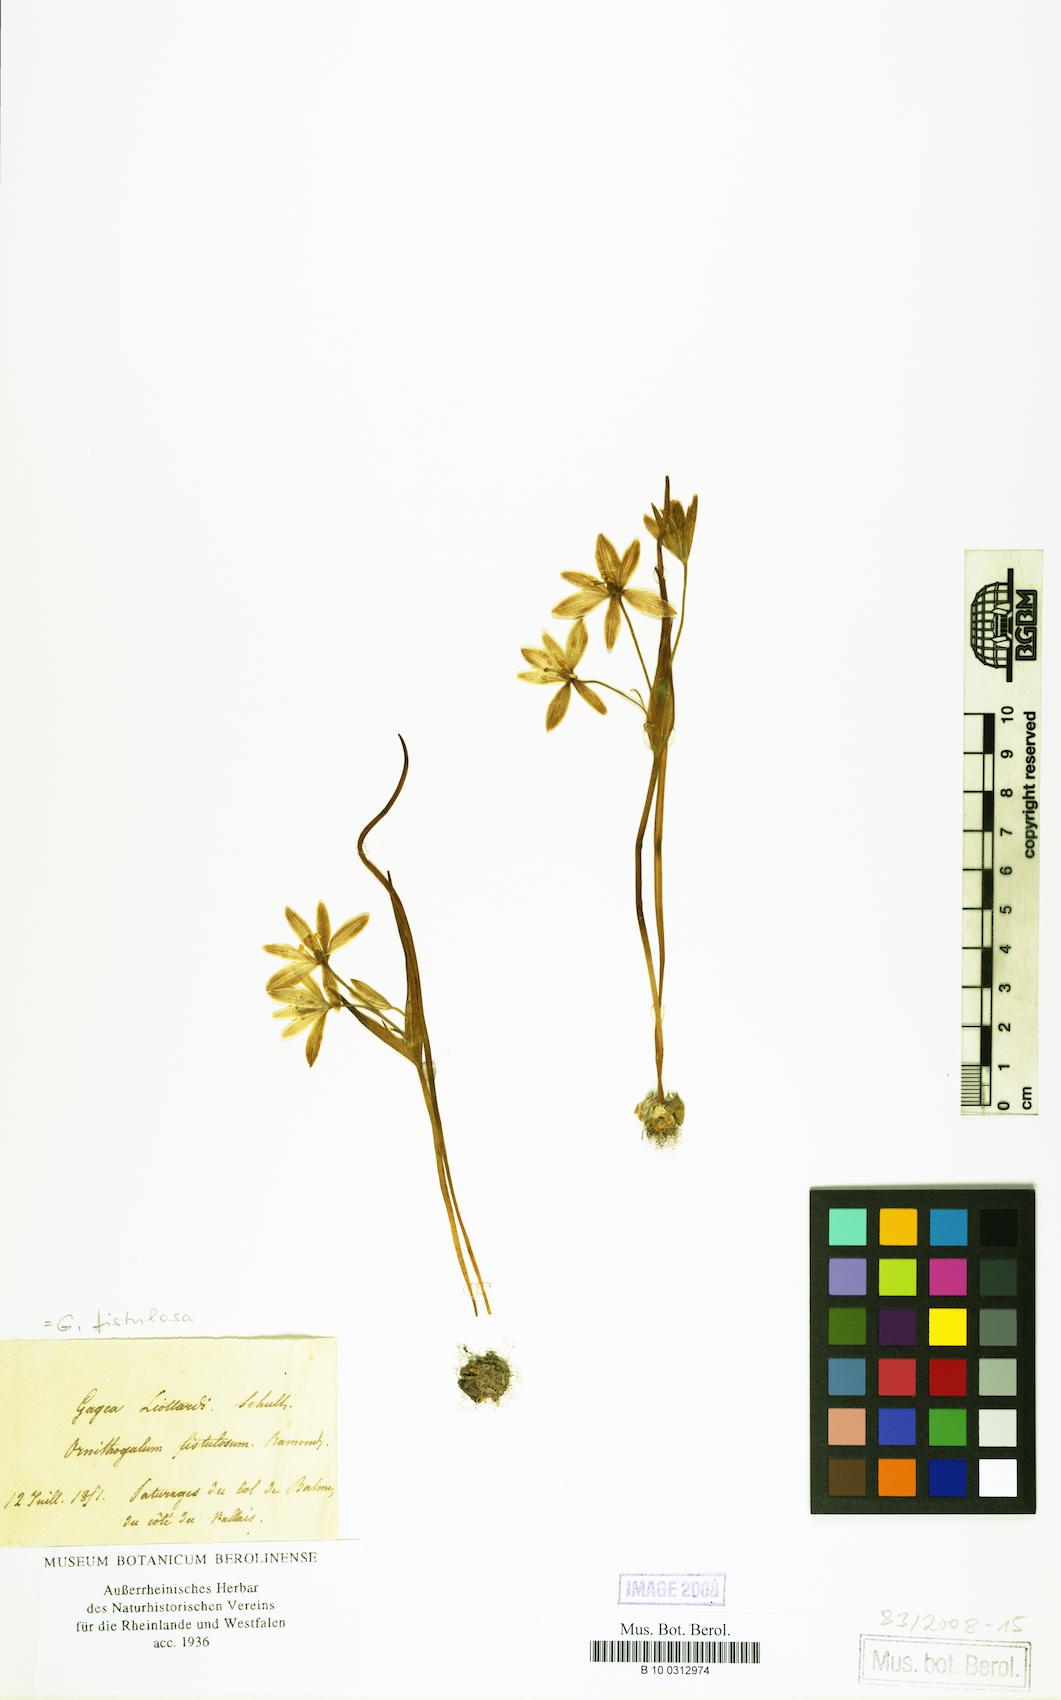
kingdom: Plantae
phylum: Tracheophyta
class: Liliopsida
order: Liliales
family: Liliaceae
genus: Gagea
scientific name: Gagea
